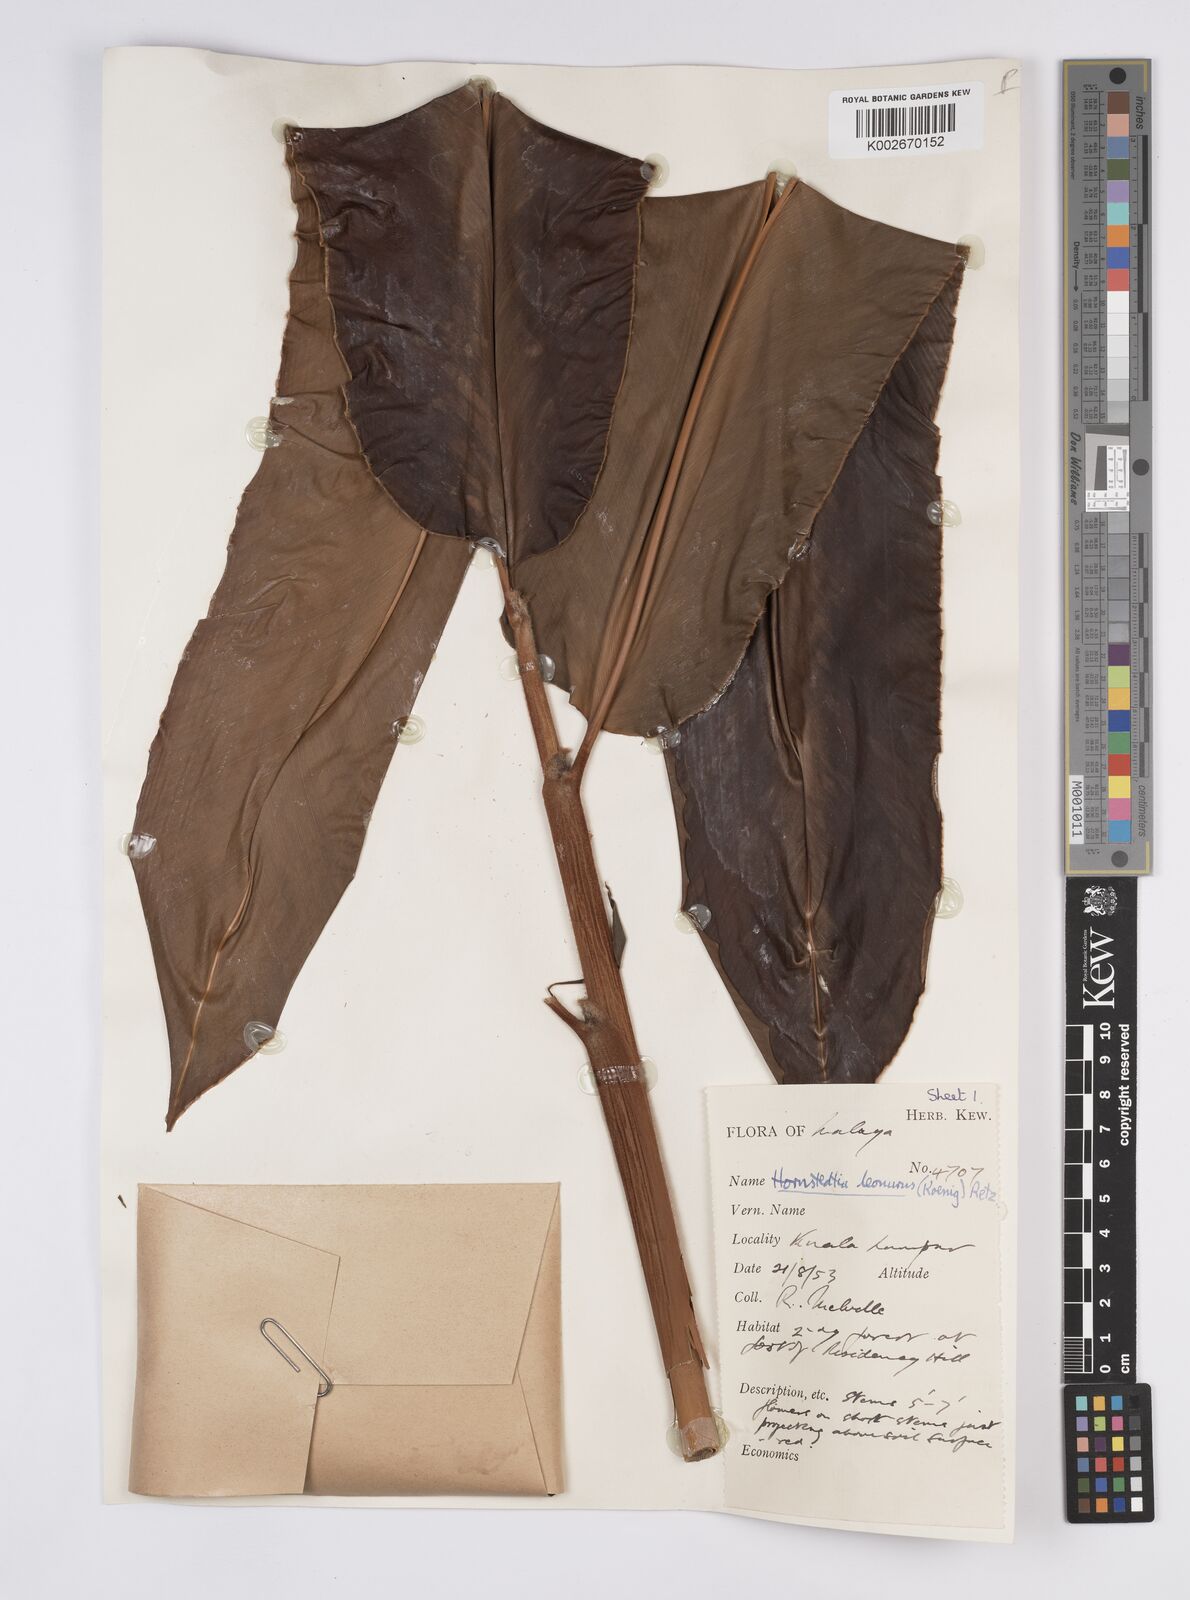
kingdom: Plantae
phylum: Tracheophyta
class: Liliopsida
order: Zingiberales
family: Zingiberaceae
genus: Hornstedtia
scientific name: Hornstedtia leonurus
